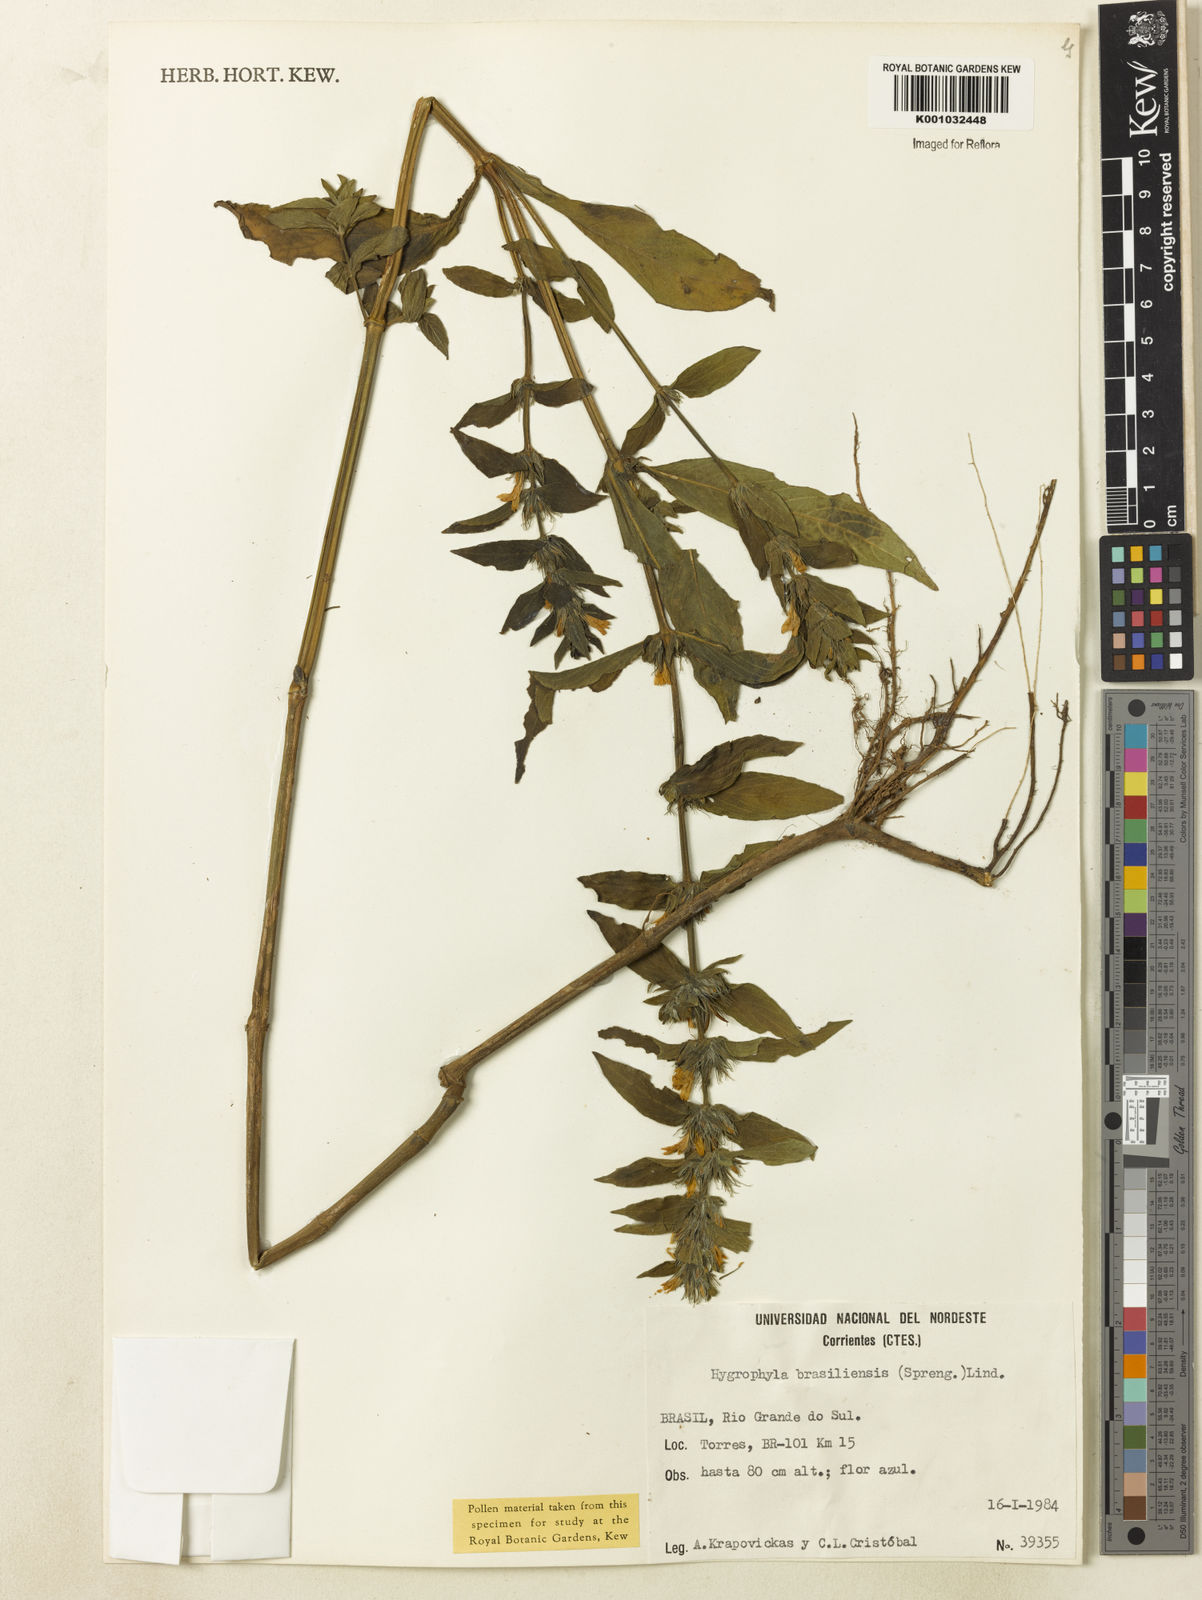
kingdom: Plantae
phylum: Tracheophyta
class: Magnoliopsida
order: Lamiales
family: Acanthaceae
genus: Hygrophila
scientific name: Hygrophila costata
